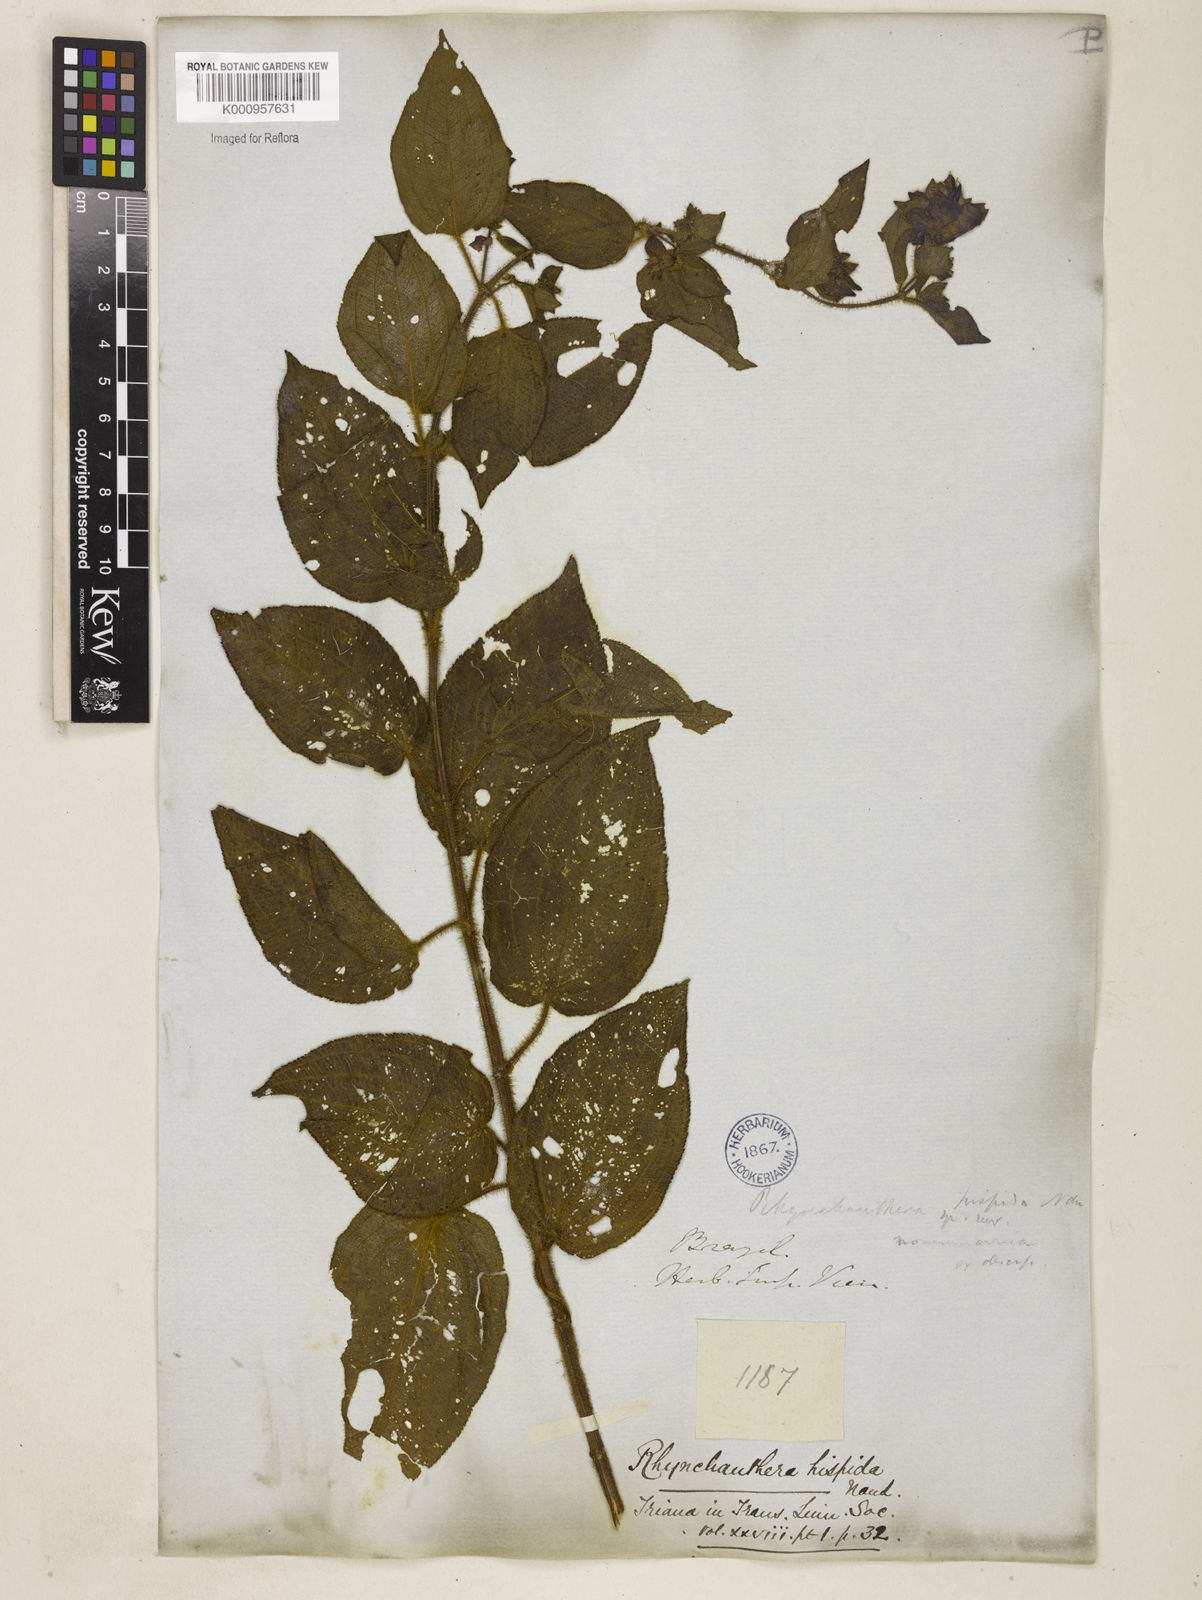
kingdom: Plantae
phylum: Tracheophyta
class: Magnoliopsida
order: Myrtales
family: Melastomataceae
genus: Rhynchanthera
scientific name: Rhynchanthera hispida
